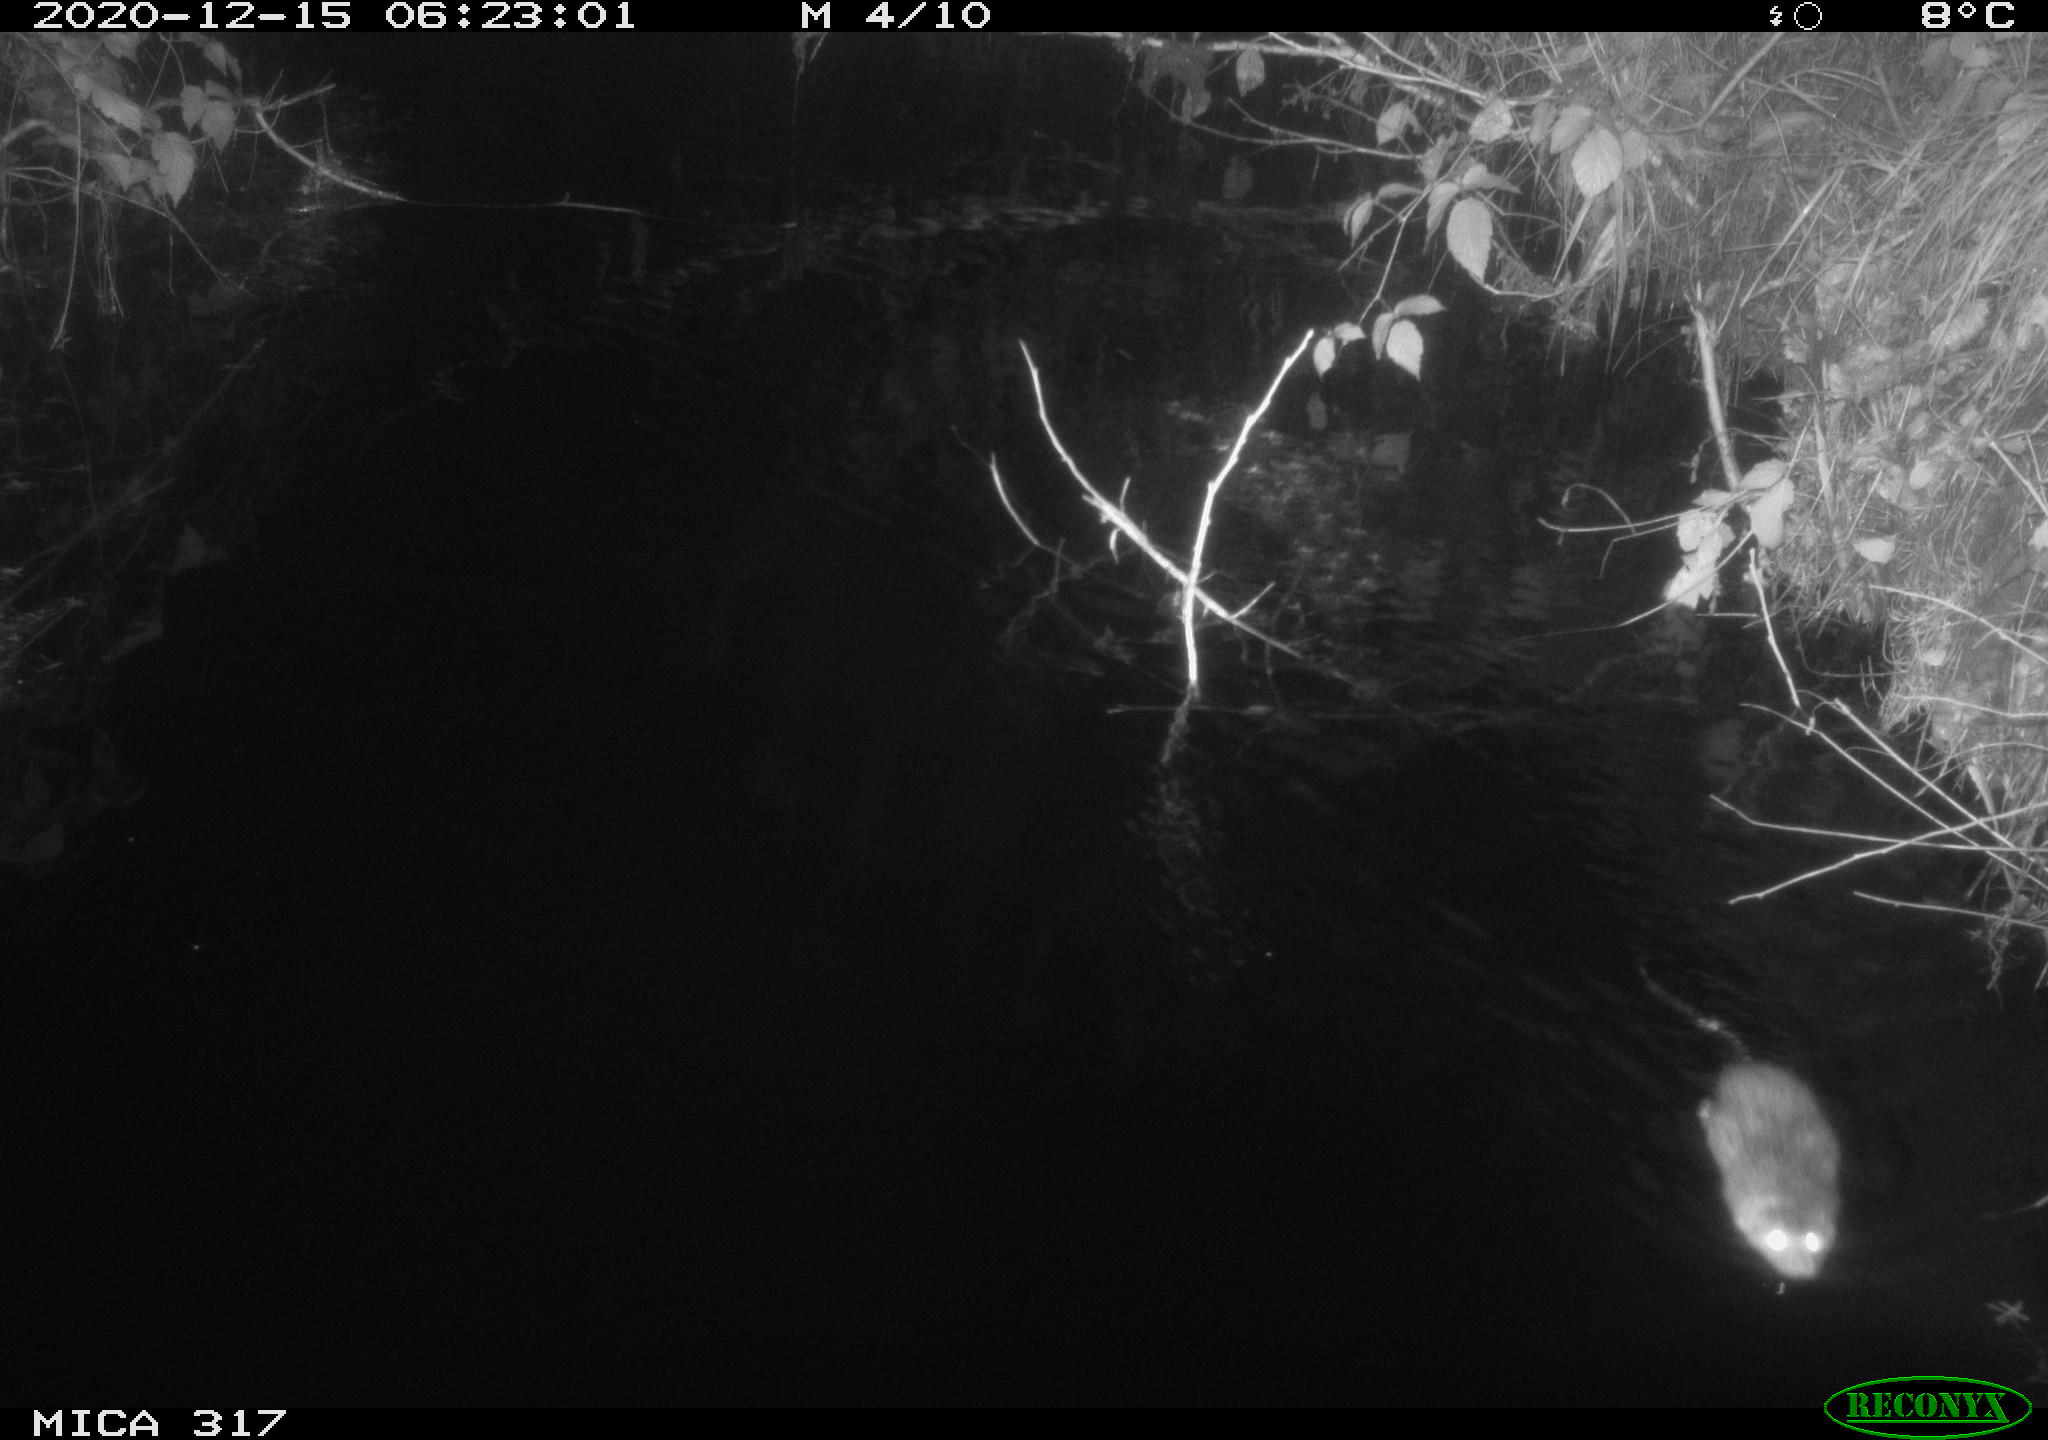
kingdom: Animalia
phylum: Chordata
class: Mammalia
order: Rodentia
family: Muridae
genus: Rattus
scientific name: Rattus norvegicus
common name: Brown rat
